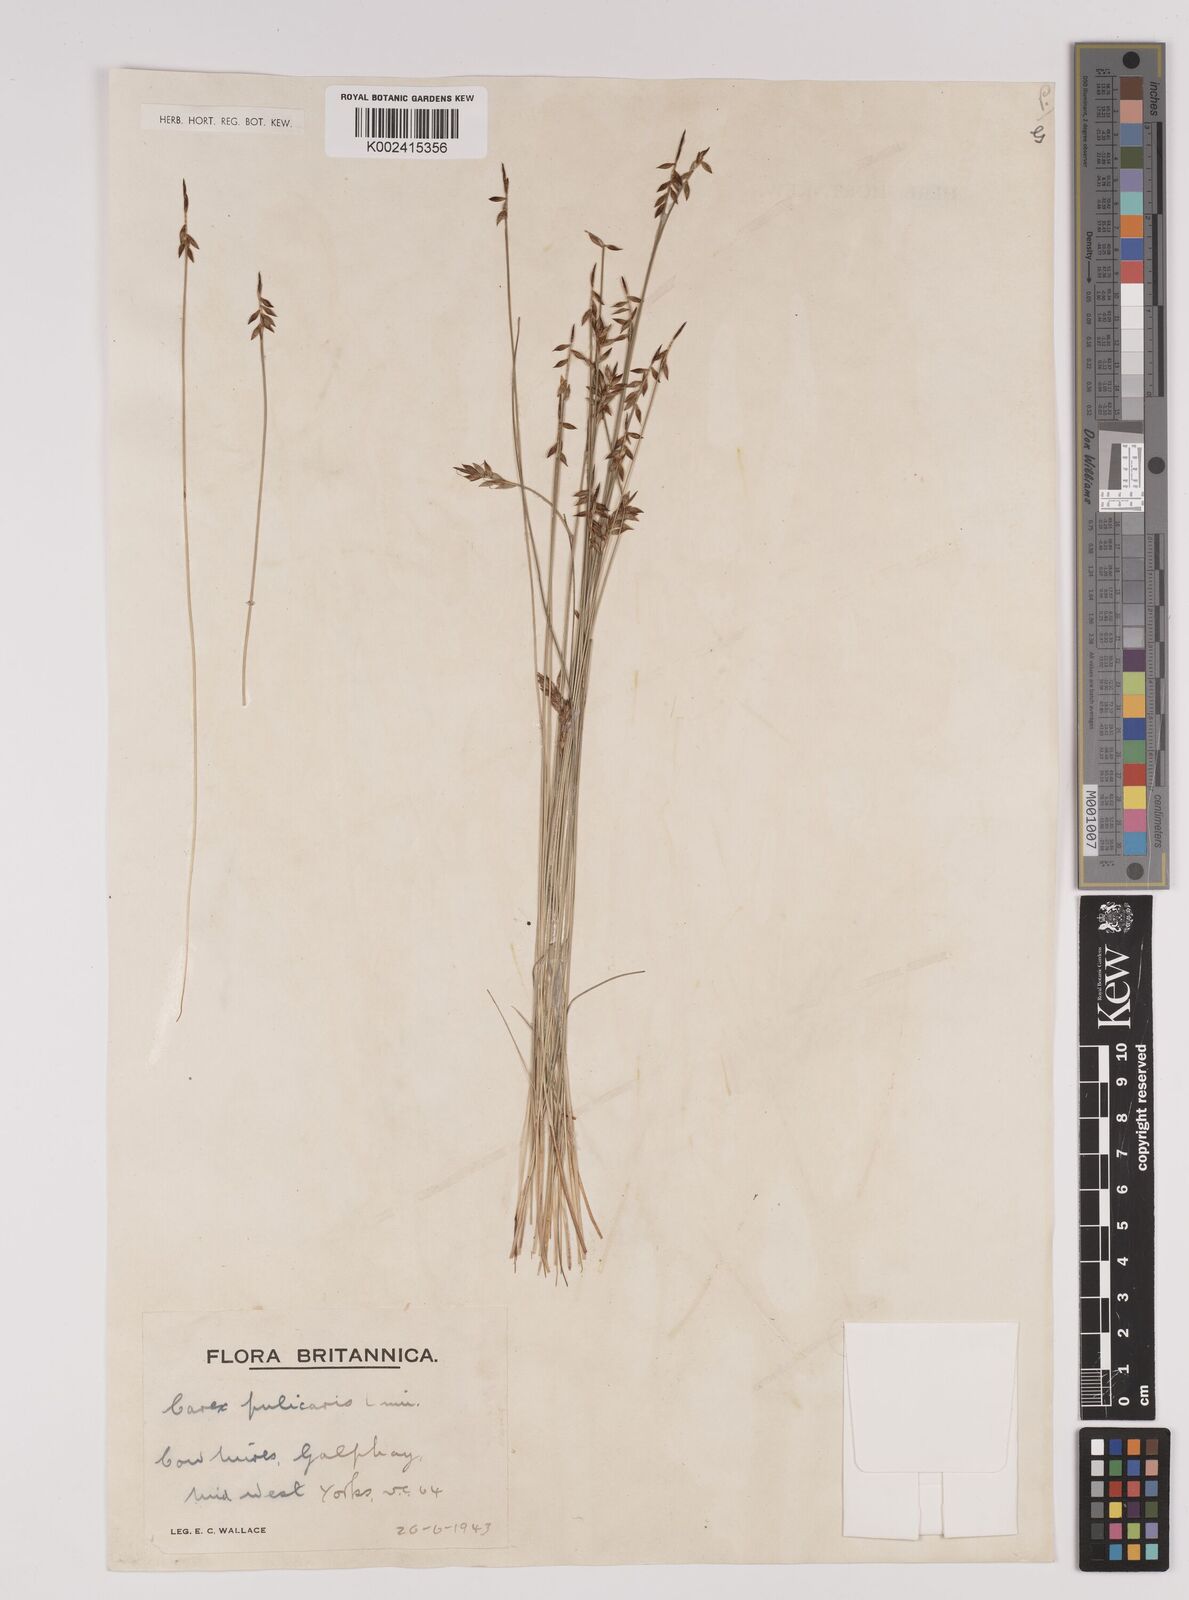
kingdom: Plantae
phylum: Tracheophyta
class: Liliopsida
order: Poales
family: Cyperaceae
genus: Carex
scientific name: Carex pulicaris
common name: Flea sedge
